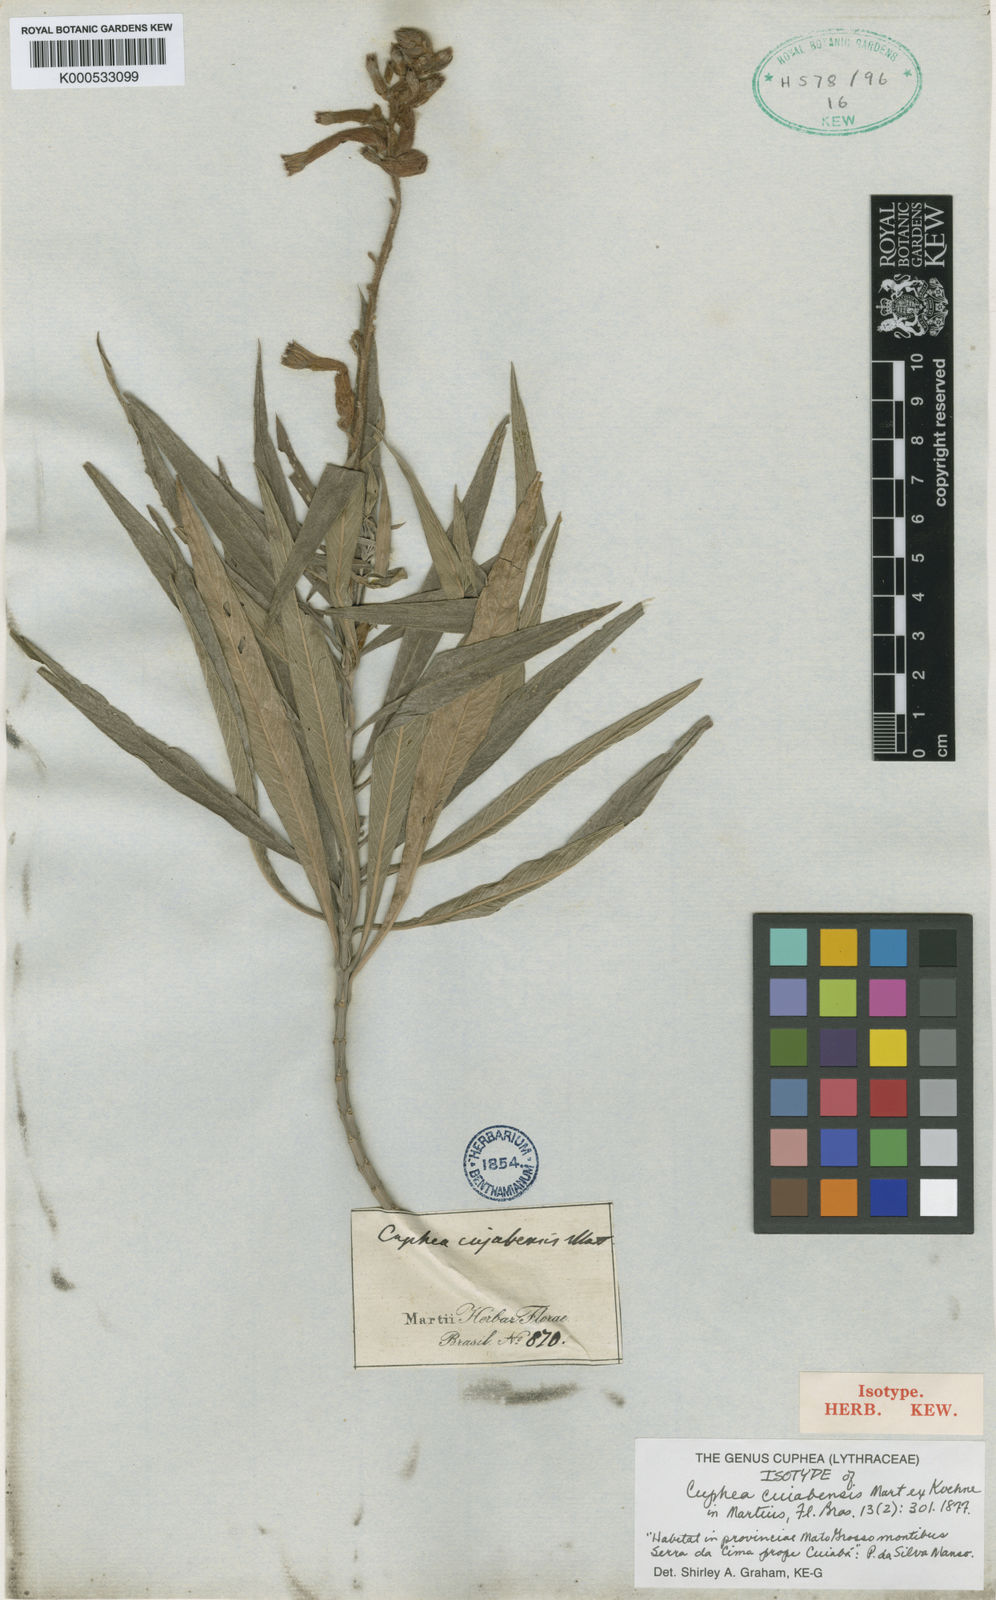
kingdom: Plantae
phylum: Tracheophyta
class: Magnoliopsida
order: Myrtales
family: Lythraceae
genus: Cuphea
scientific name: Cuphea cuiabensis
